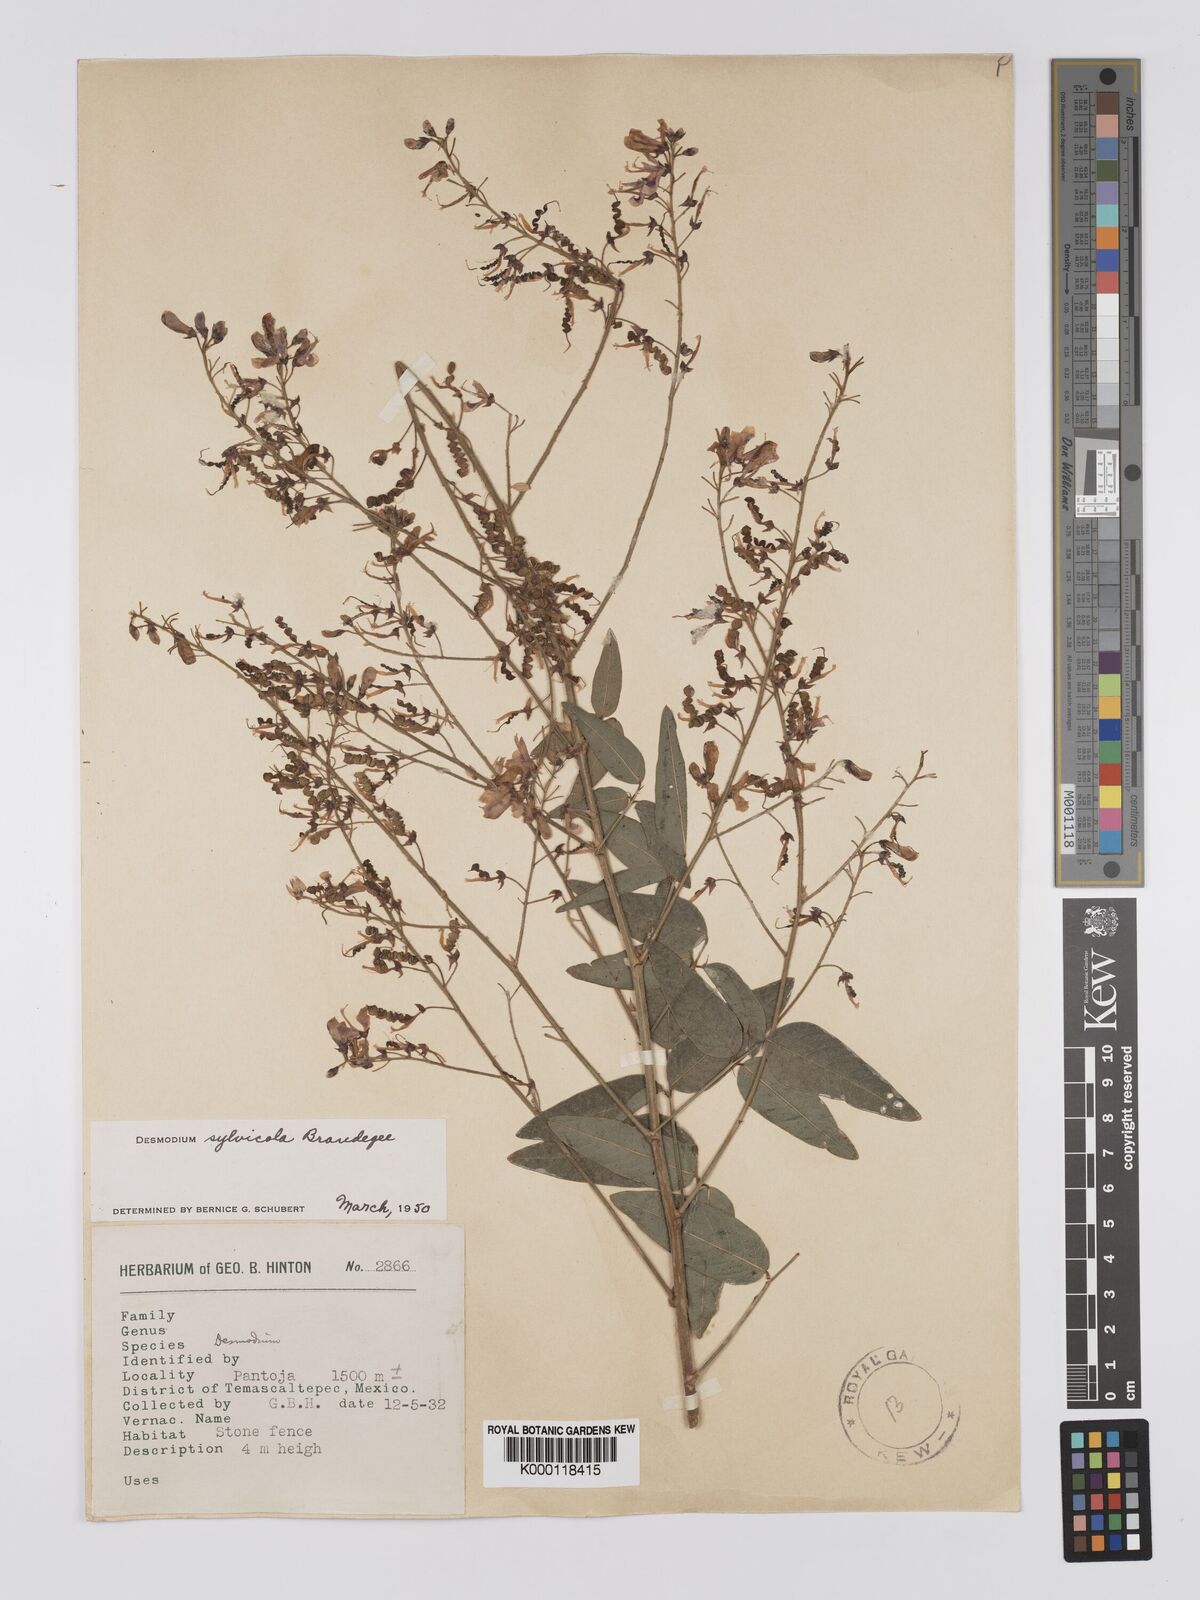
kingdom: Plantae
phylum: Tracheophyta
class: Magnoliopsida
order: Fabales
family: Fabaceae
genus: Desmodium
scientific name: Desmodium sylvicola
